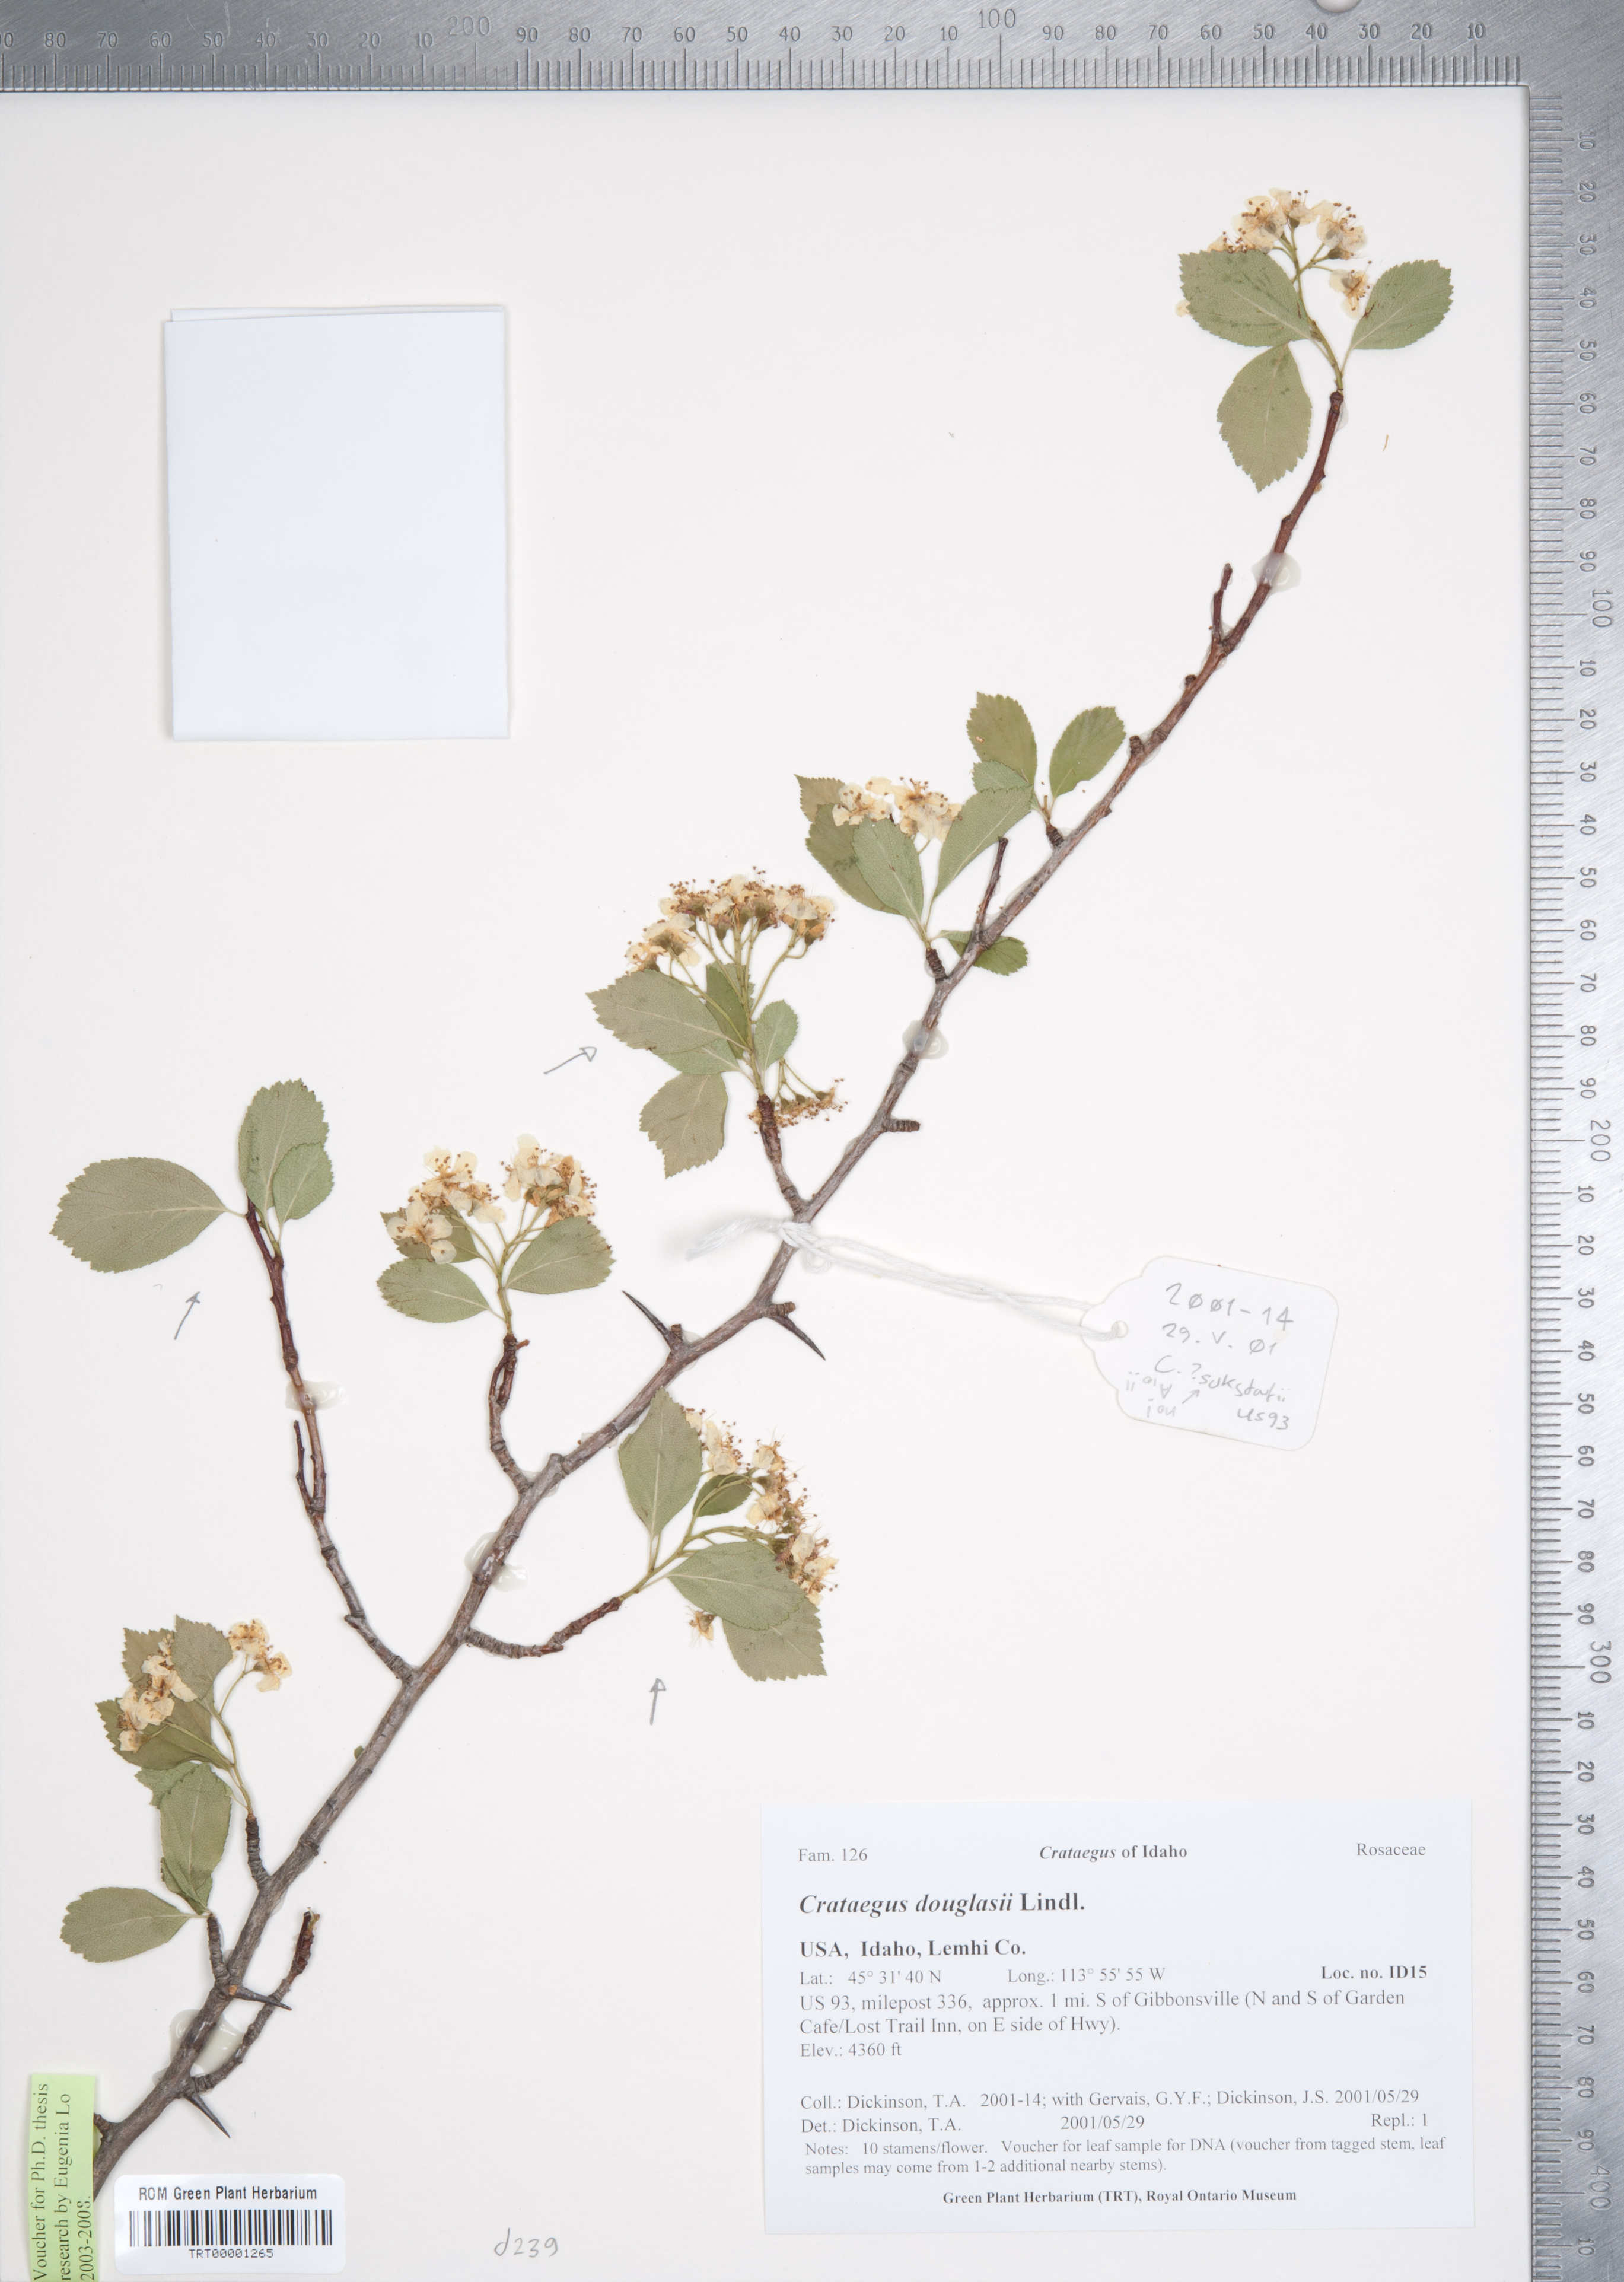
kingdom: Plantae
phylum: Tracheophyta
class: Magnoliopsida
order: Rosales
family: Rosaceae
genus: Crataegus
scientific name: Crataegus douglasii
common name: Black hawthorn
